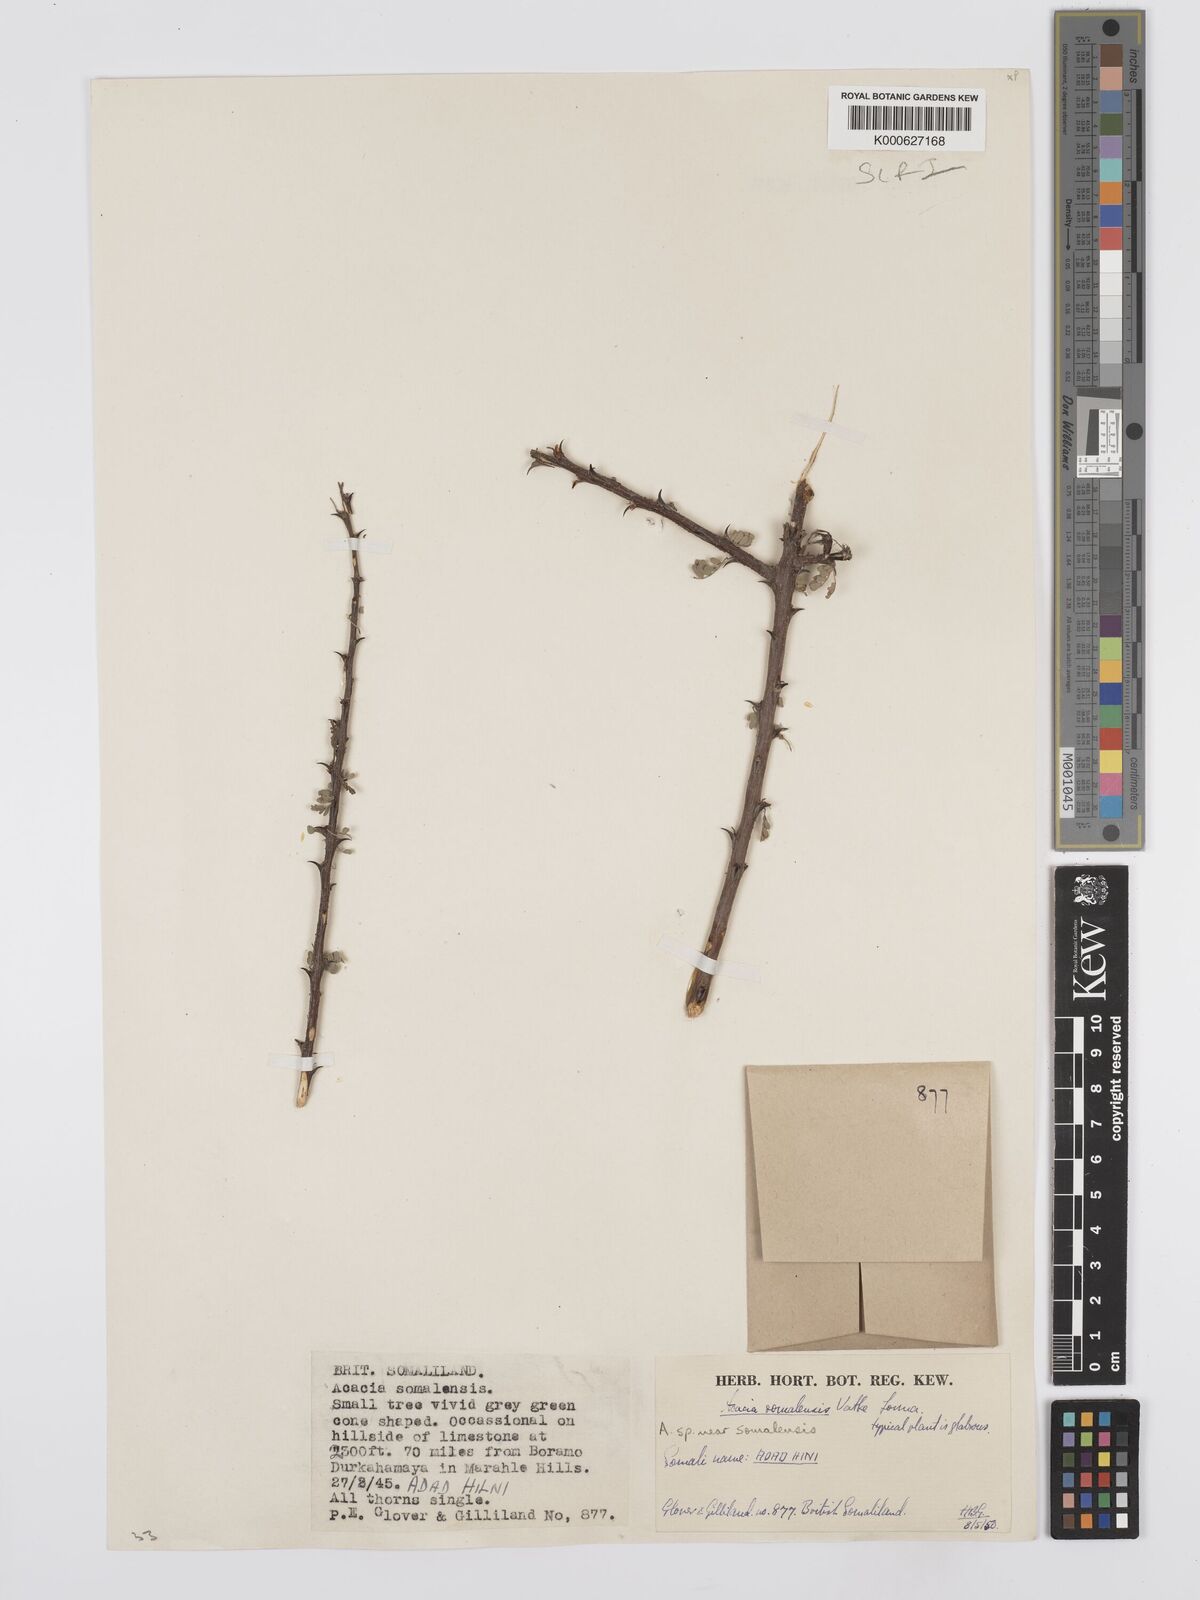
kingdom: Plantae
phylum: Tracheophyta
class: Magnoliopsida
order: Fabales
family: Fabaceae
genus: Senegalia
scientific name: Senegalia somalensis
